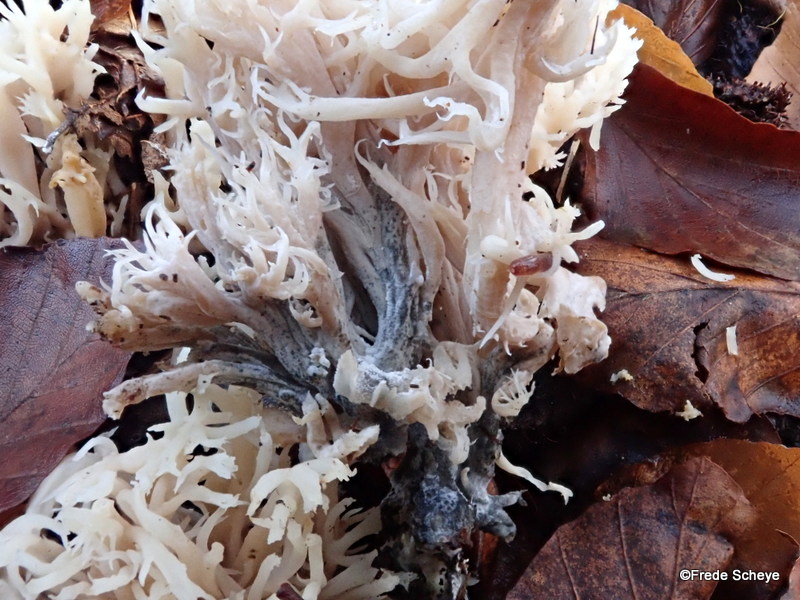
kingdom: Fungi
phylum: Ascomycota
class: Sordariomycetes
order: Sordariales
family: Helminthosphaeriaceae
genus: Helminthosphaeria
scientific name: Helminthosphaeria clavariarum
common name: trold-svampesnyltekerne
